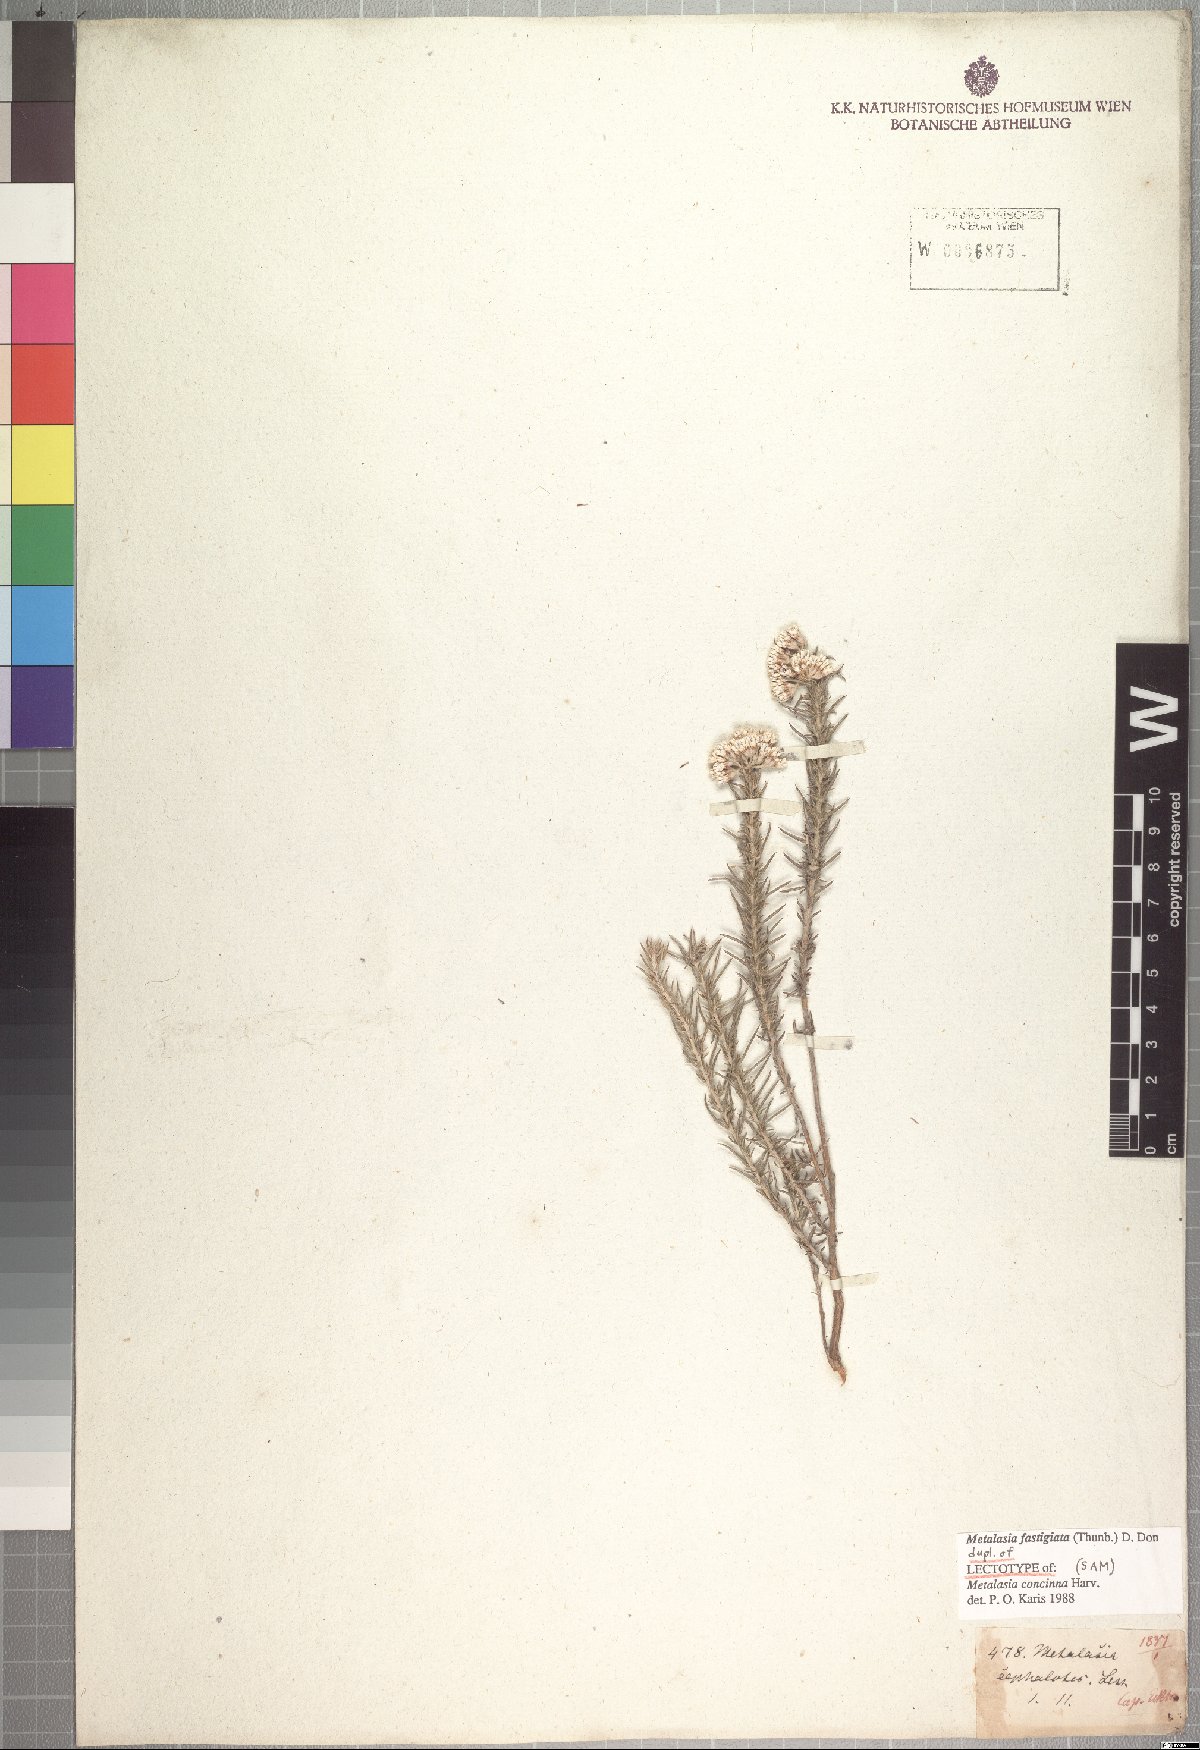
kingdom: Plantae
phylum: Tracheophyta
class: Magnoliopsida
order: Asterales
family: Asteraceae
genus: Metalasia
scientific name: Metalasia fastigiata
